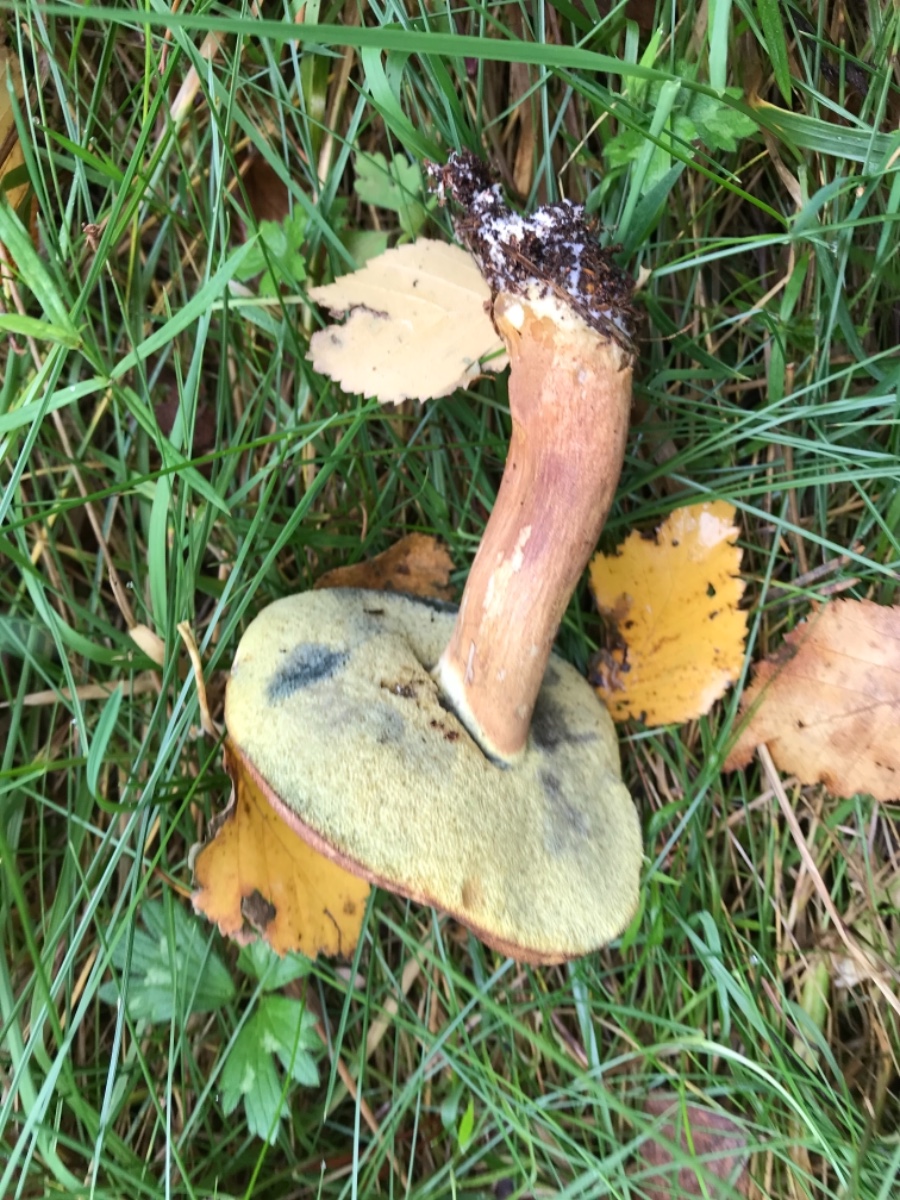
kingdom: Fungi
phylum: Basidiomycota
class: Agaricomycetes
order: Boletales
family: Boletaceae
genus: Imleria
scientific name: Imleria badia
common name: brunstokket rørhat
